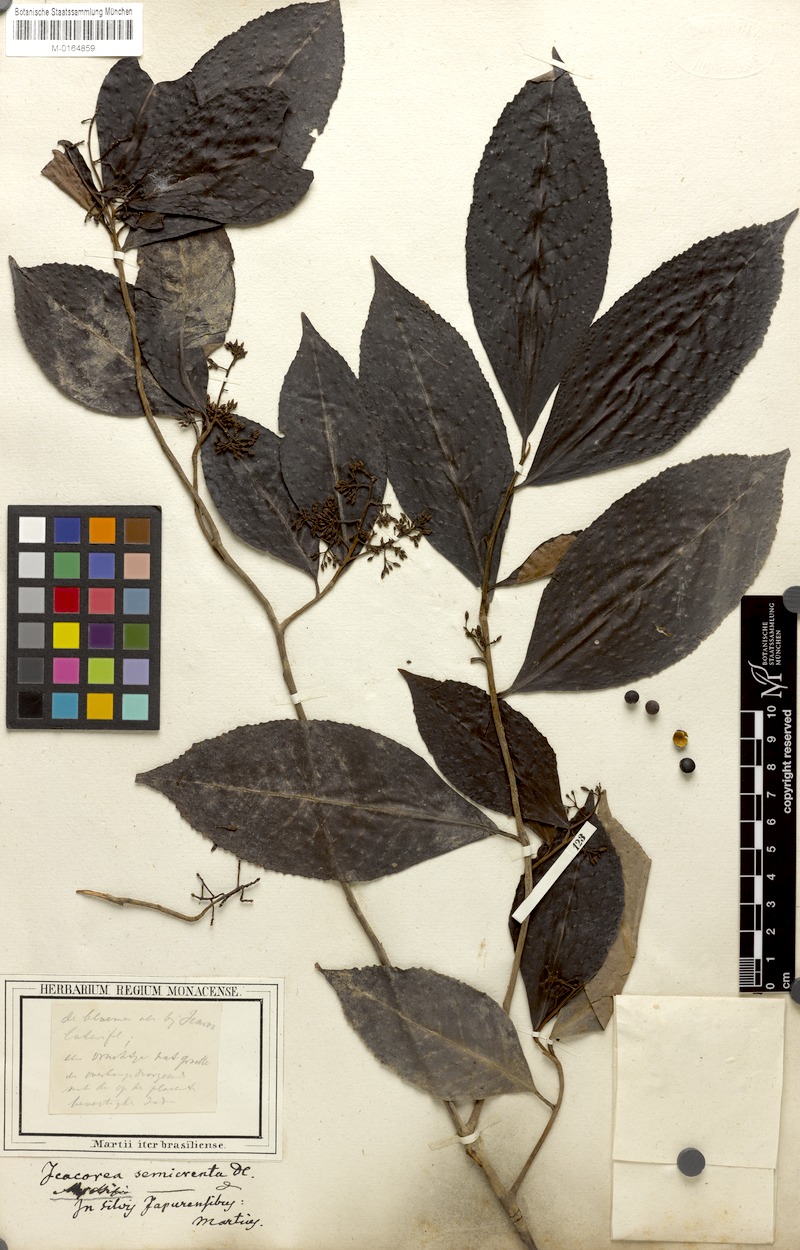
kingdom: Plantae
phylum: Tracheophyta
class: Magnoliopsida
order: Ericales
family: Primulaceae
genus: Ardisia
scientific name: Ardisia guianensis
